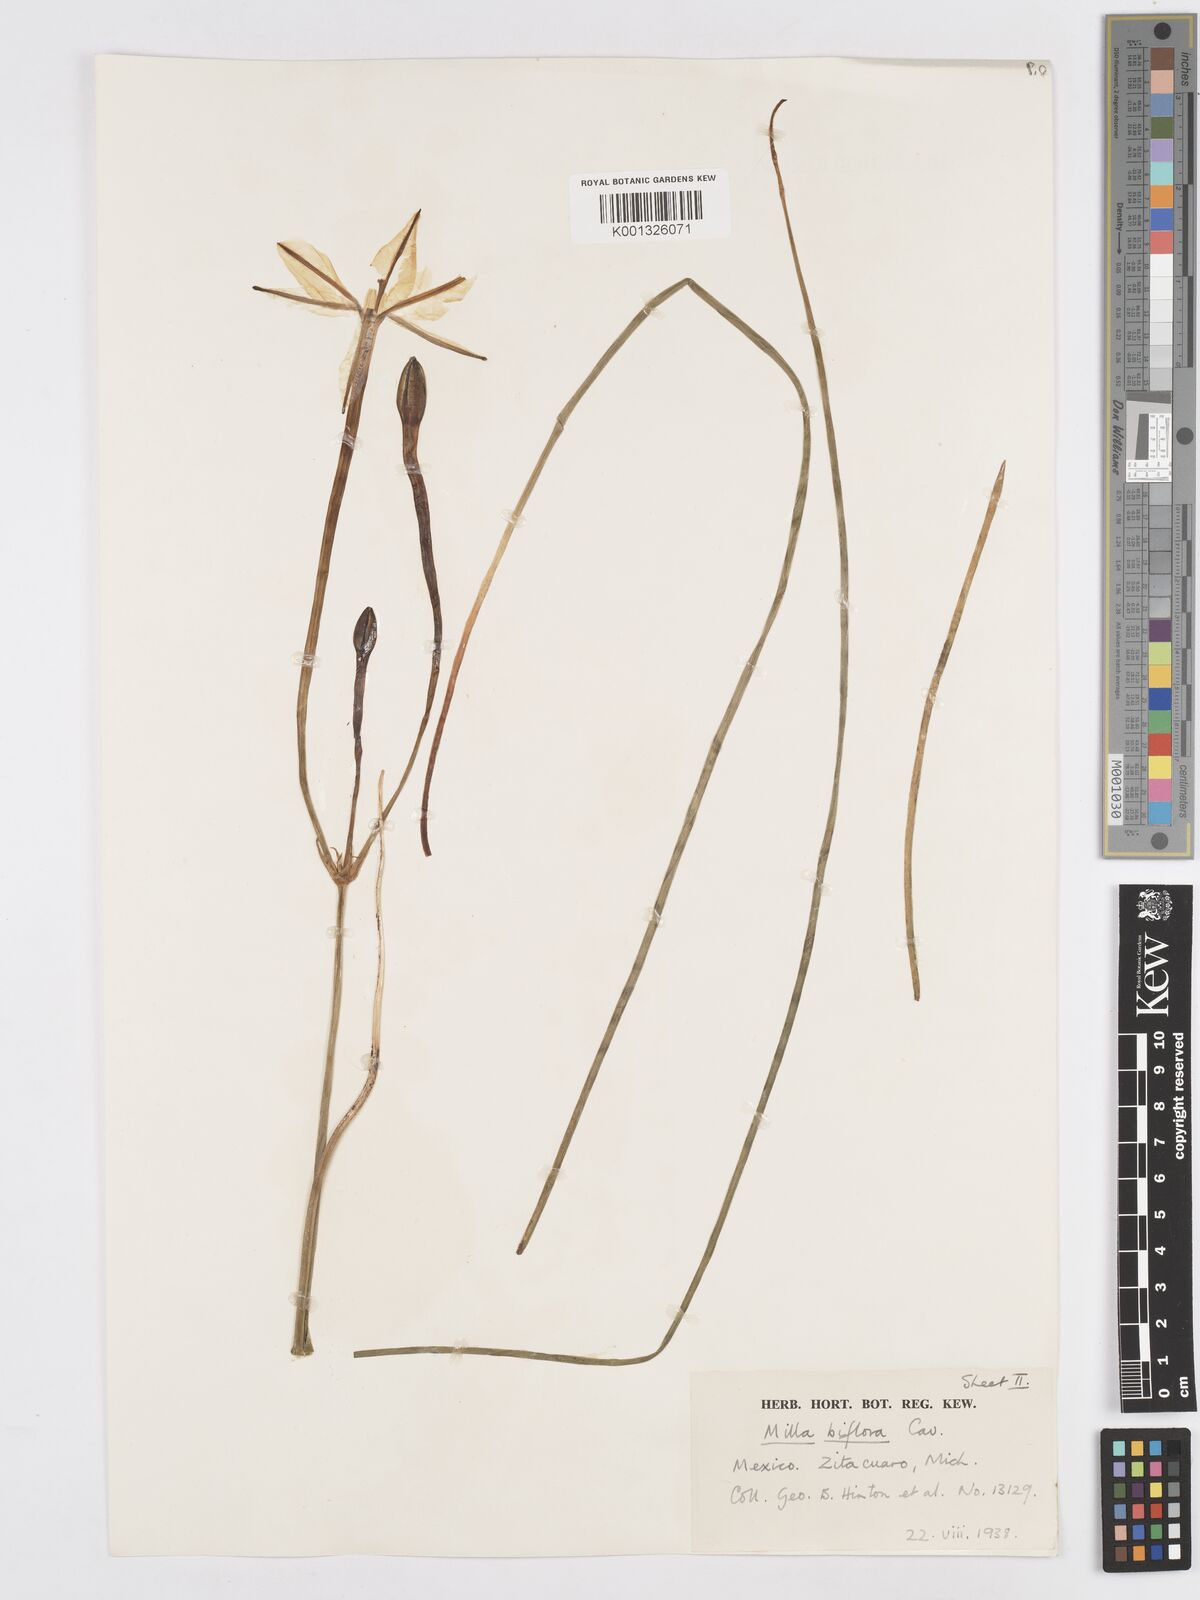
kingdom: Plantae
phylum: Tracheophyta
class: Liliopsida
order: Asparagales
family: Asparagaceae
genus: Milla
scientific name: Milla biflora
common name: Mexican-star
